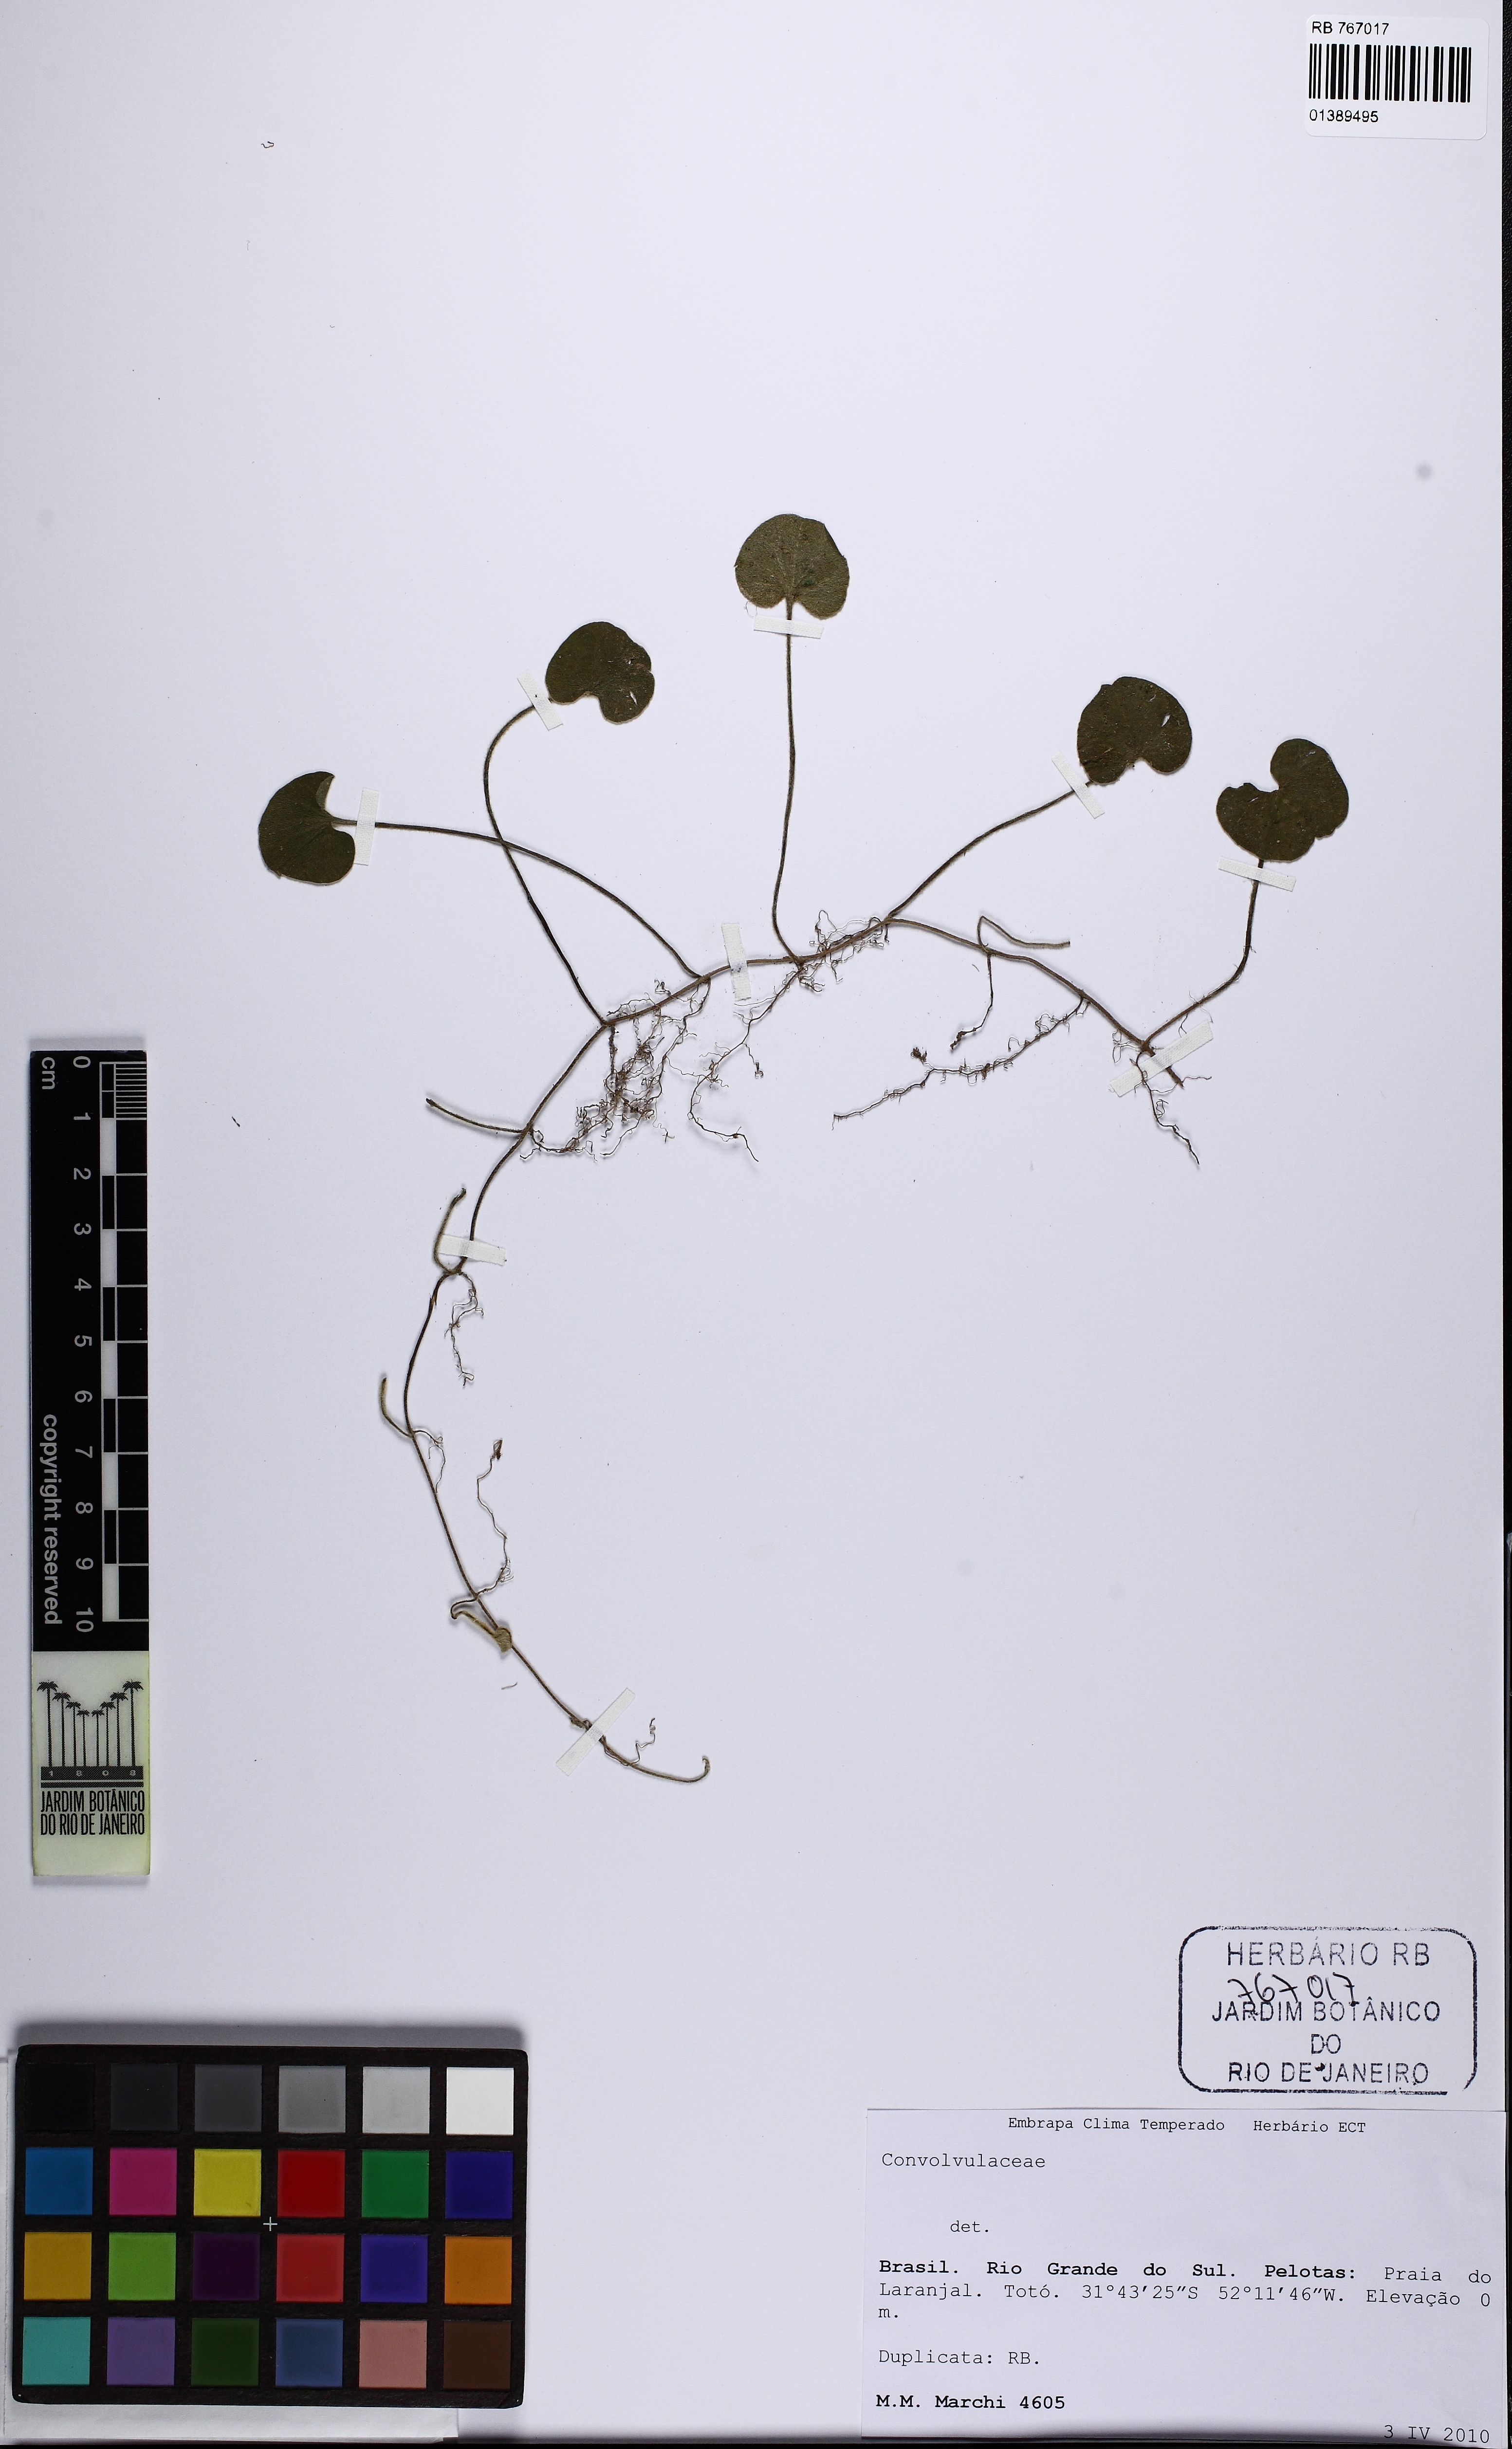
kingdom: Plantae
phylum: Tracheophyta
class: Magnoliopsida
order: Solanales
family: Convolvulaceae
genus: Dichondra
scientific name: Dichondra
